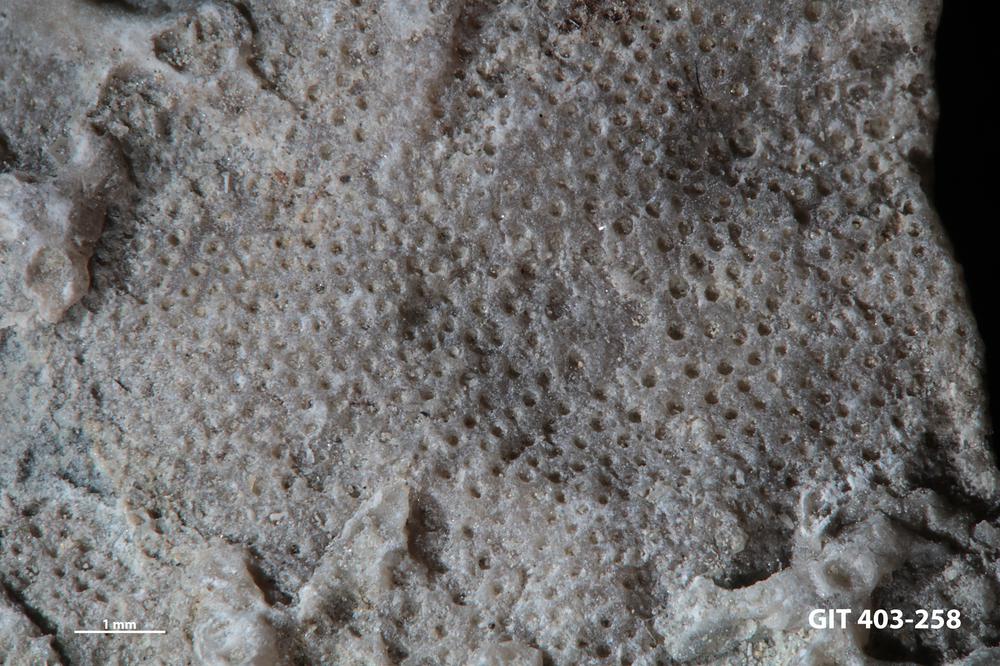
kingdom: Animalia
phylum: Bryozoa
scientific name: Bryozoa
